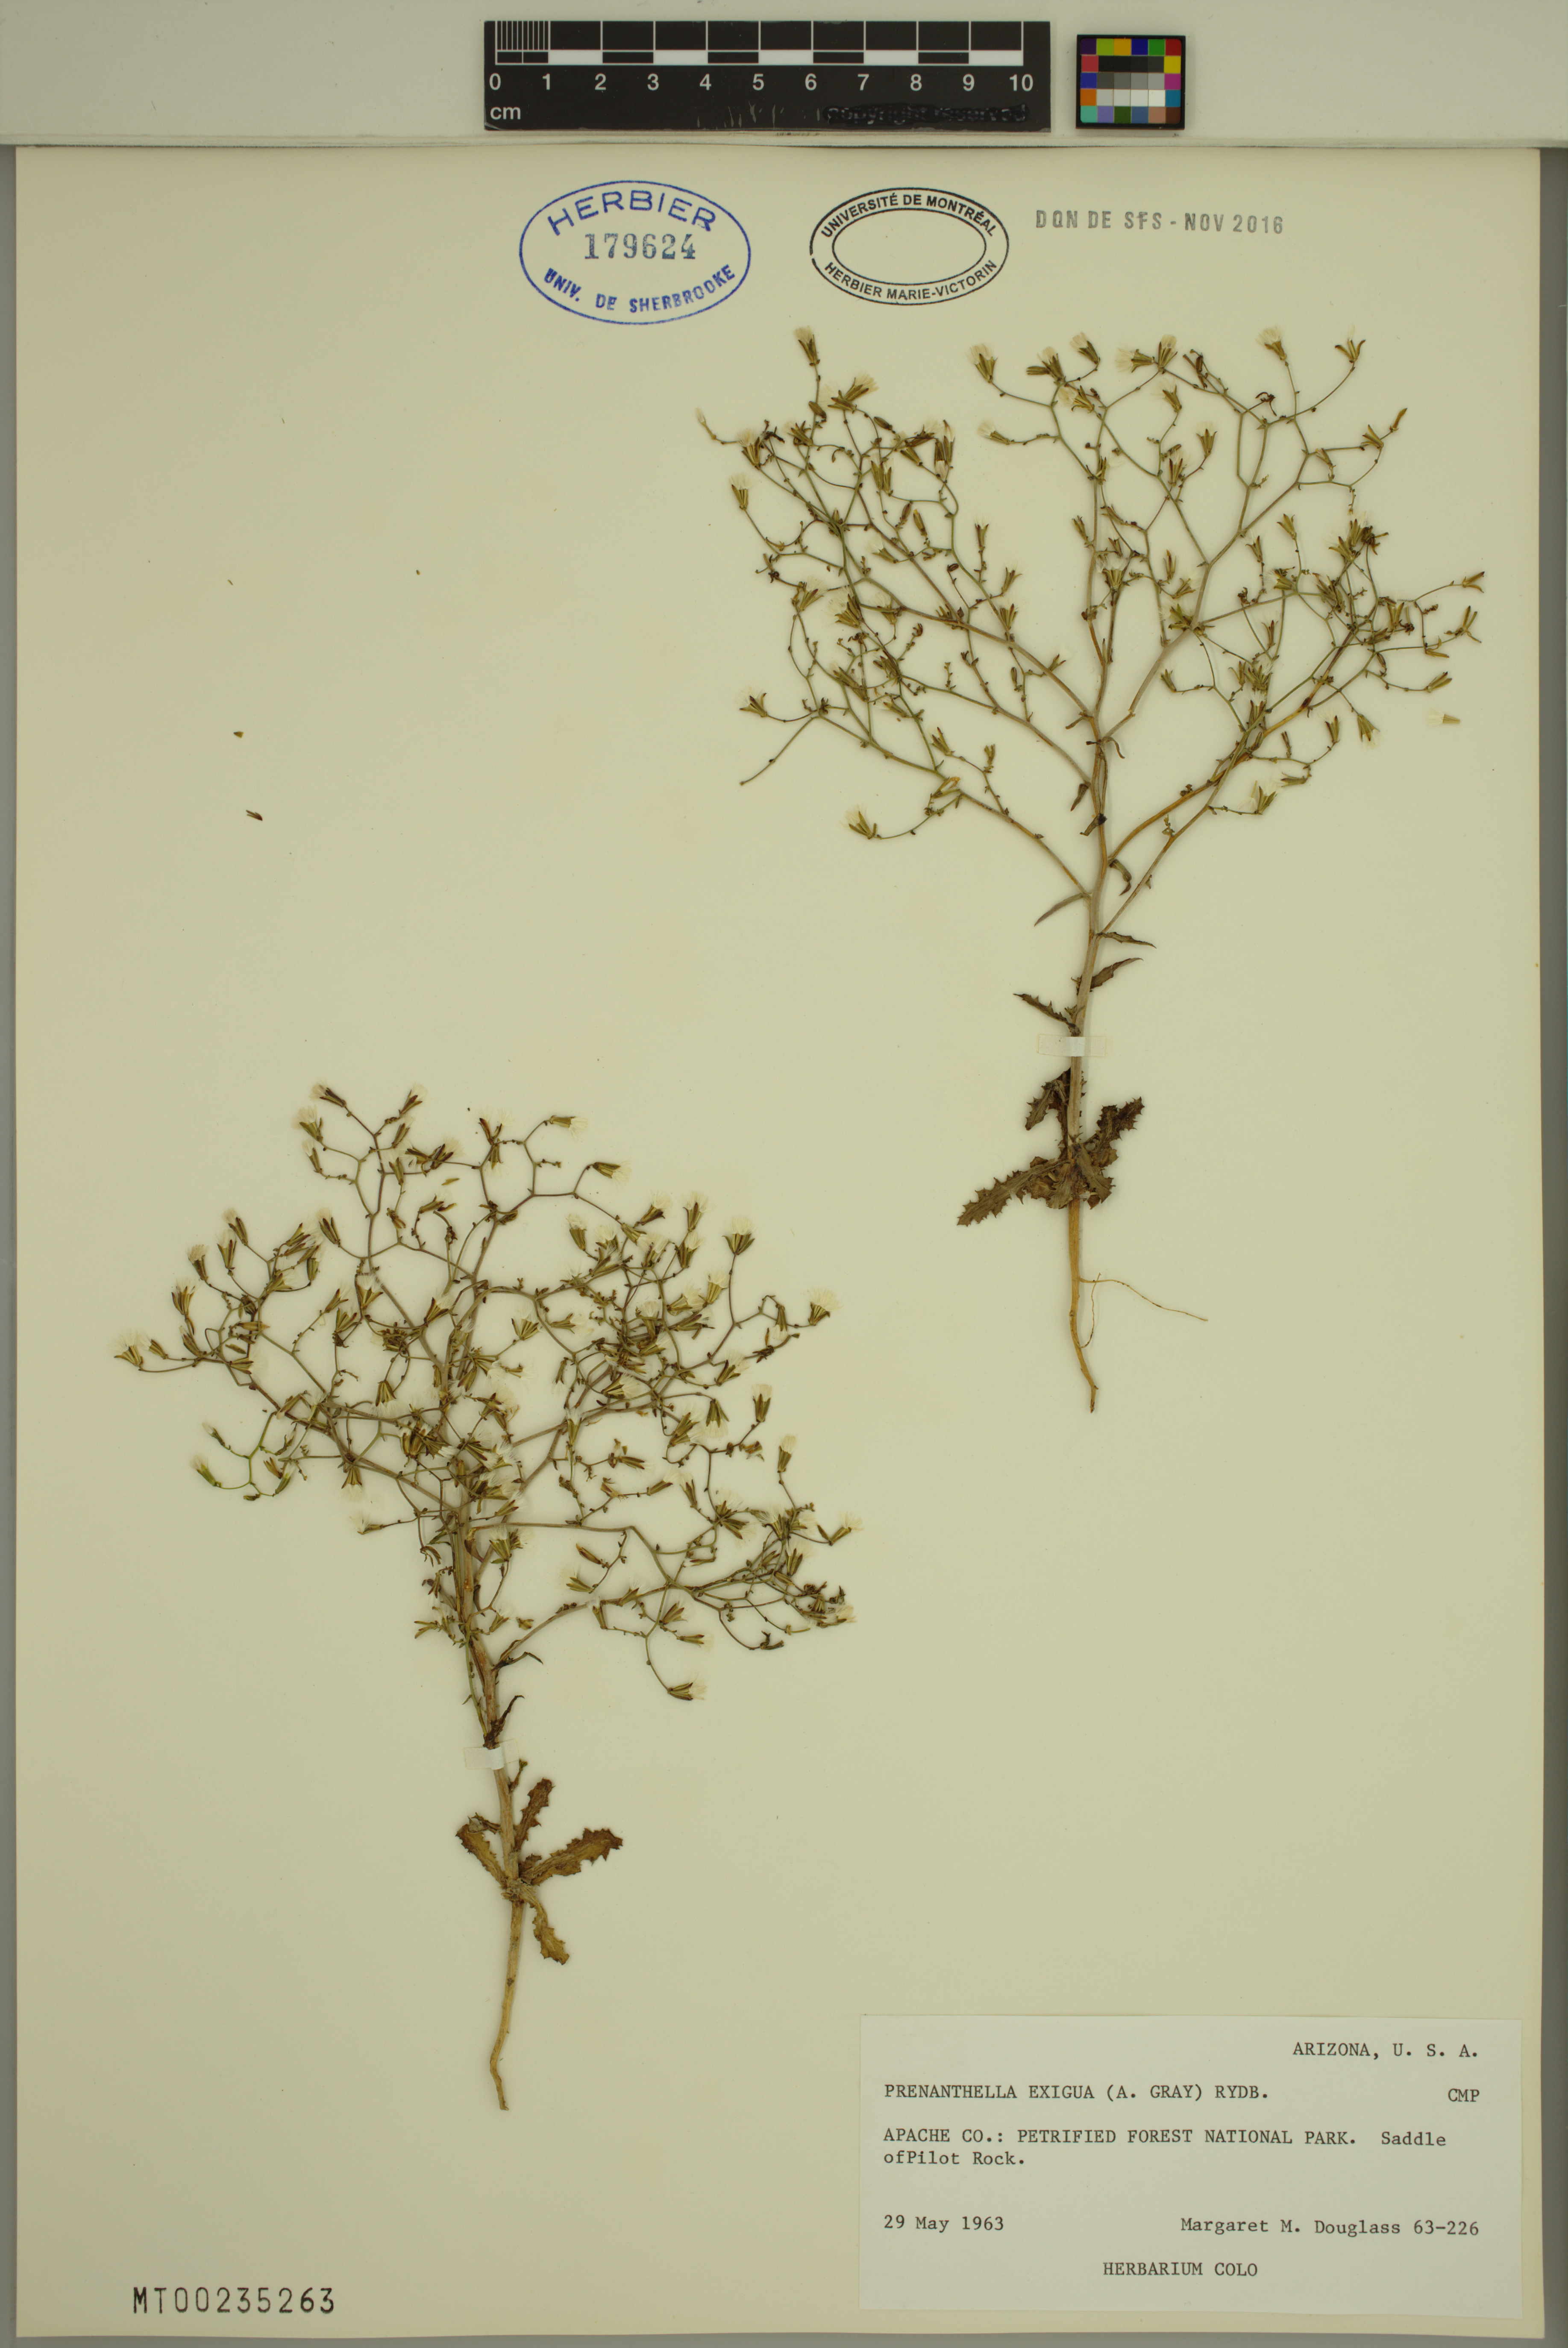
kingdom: Plantae
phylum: Tracheophyta
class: Magnoliopsida
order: Asterales
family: Asteraceae
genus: Lygodesmia
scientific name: Lygodesmia exigua
